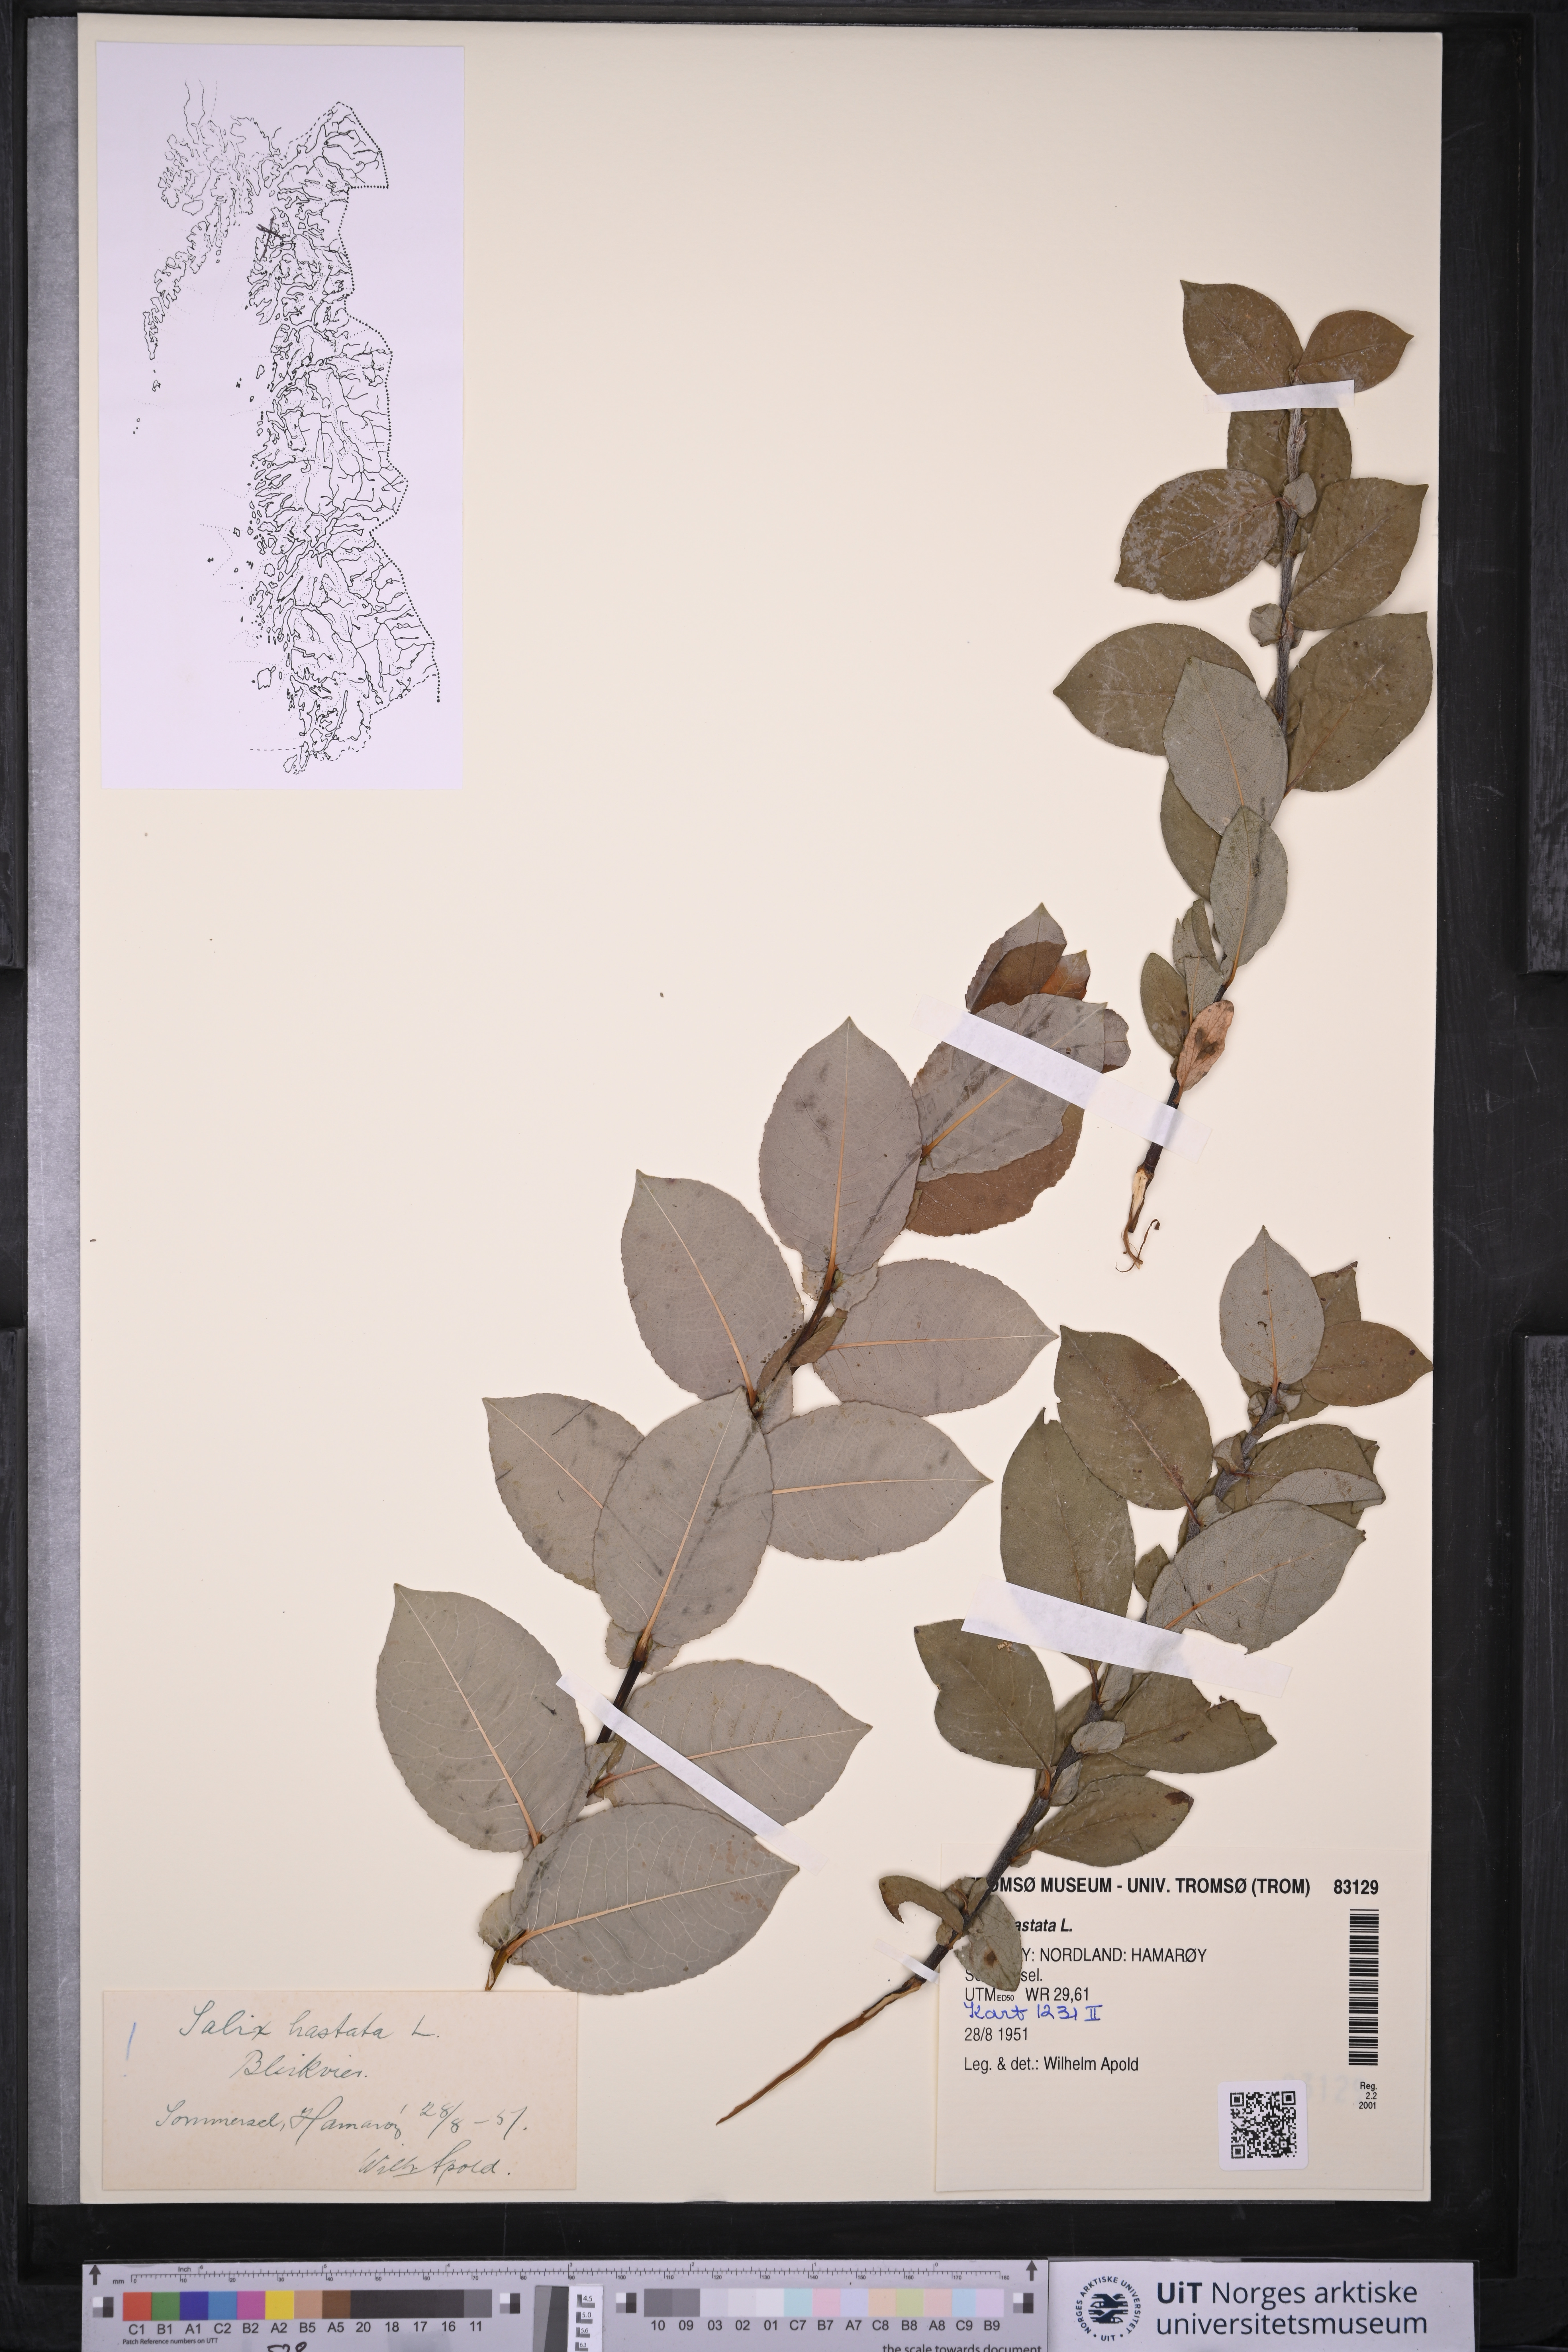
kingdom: Plantae
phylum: Tracheophyta
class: Magnoliopsida
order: Malpighiales
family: Salicaceae
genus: Salix
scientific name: Salix hastata
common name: Halberd willow
